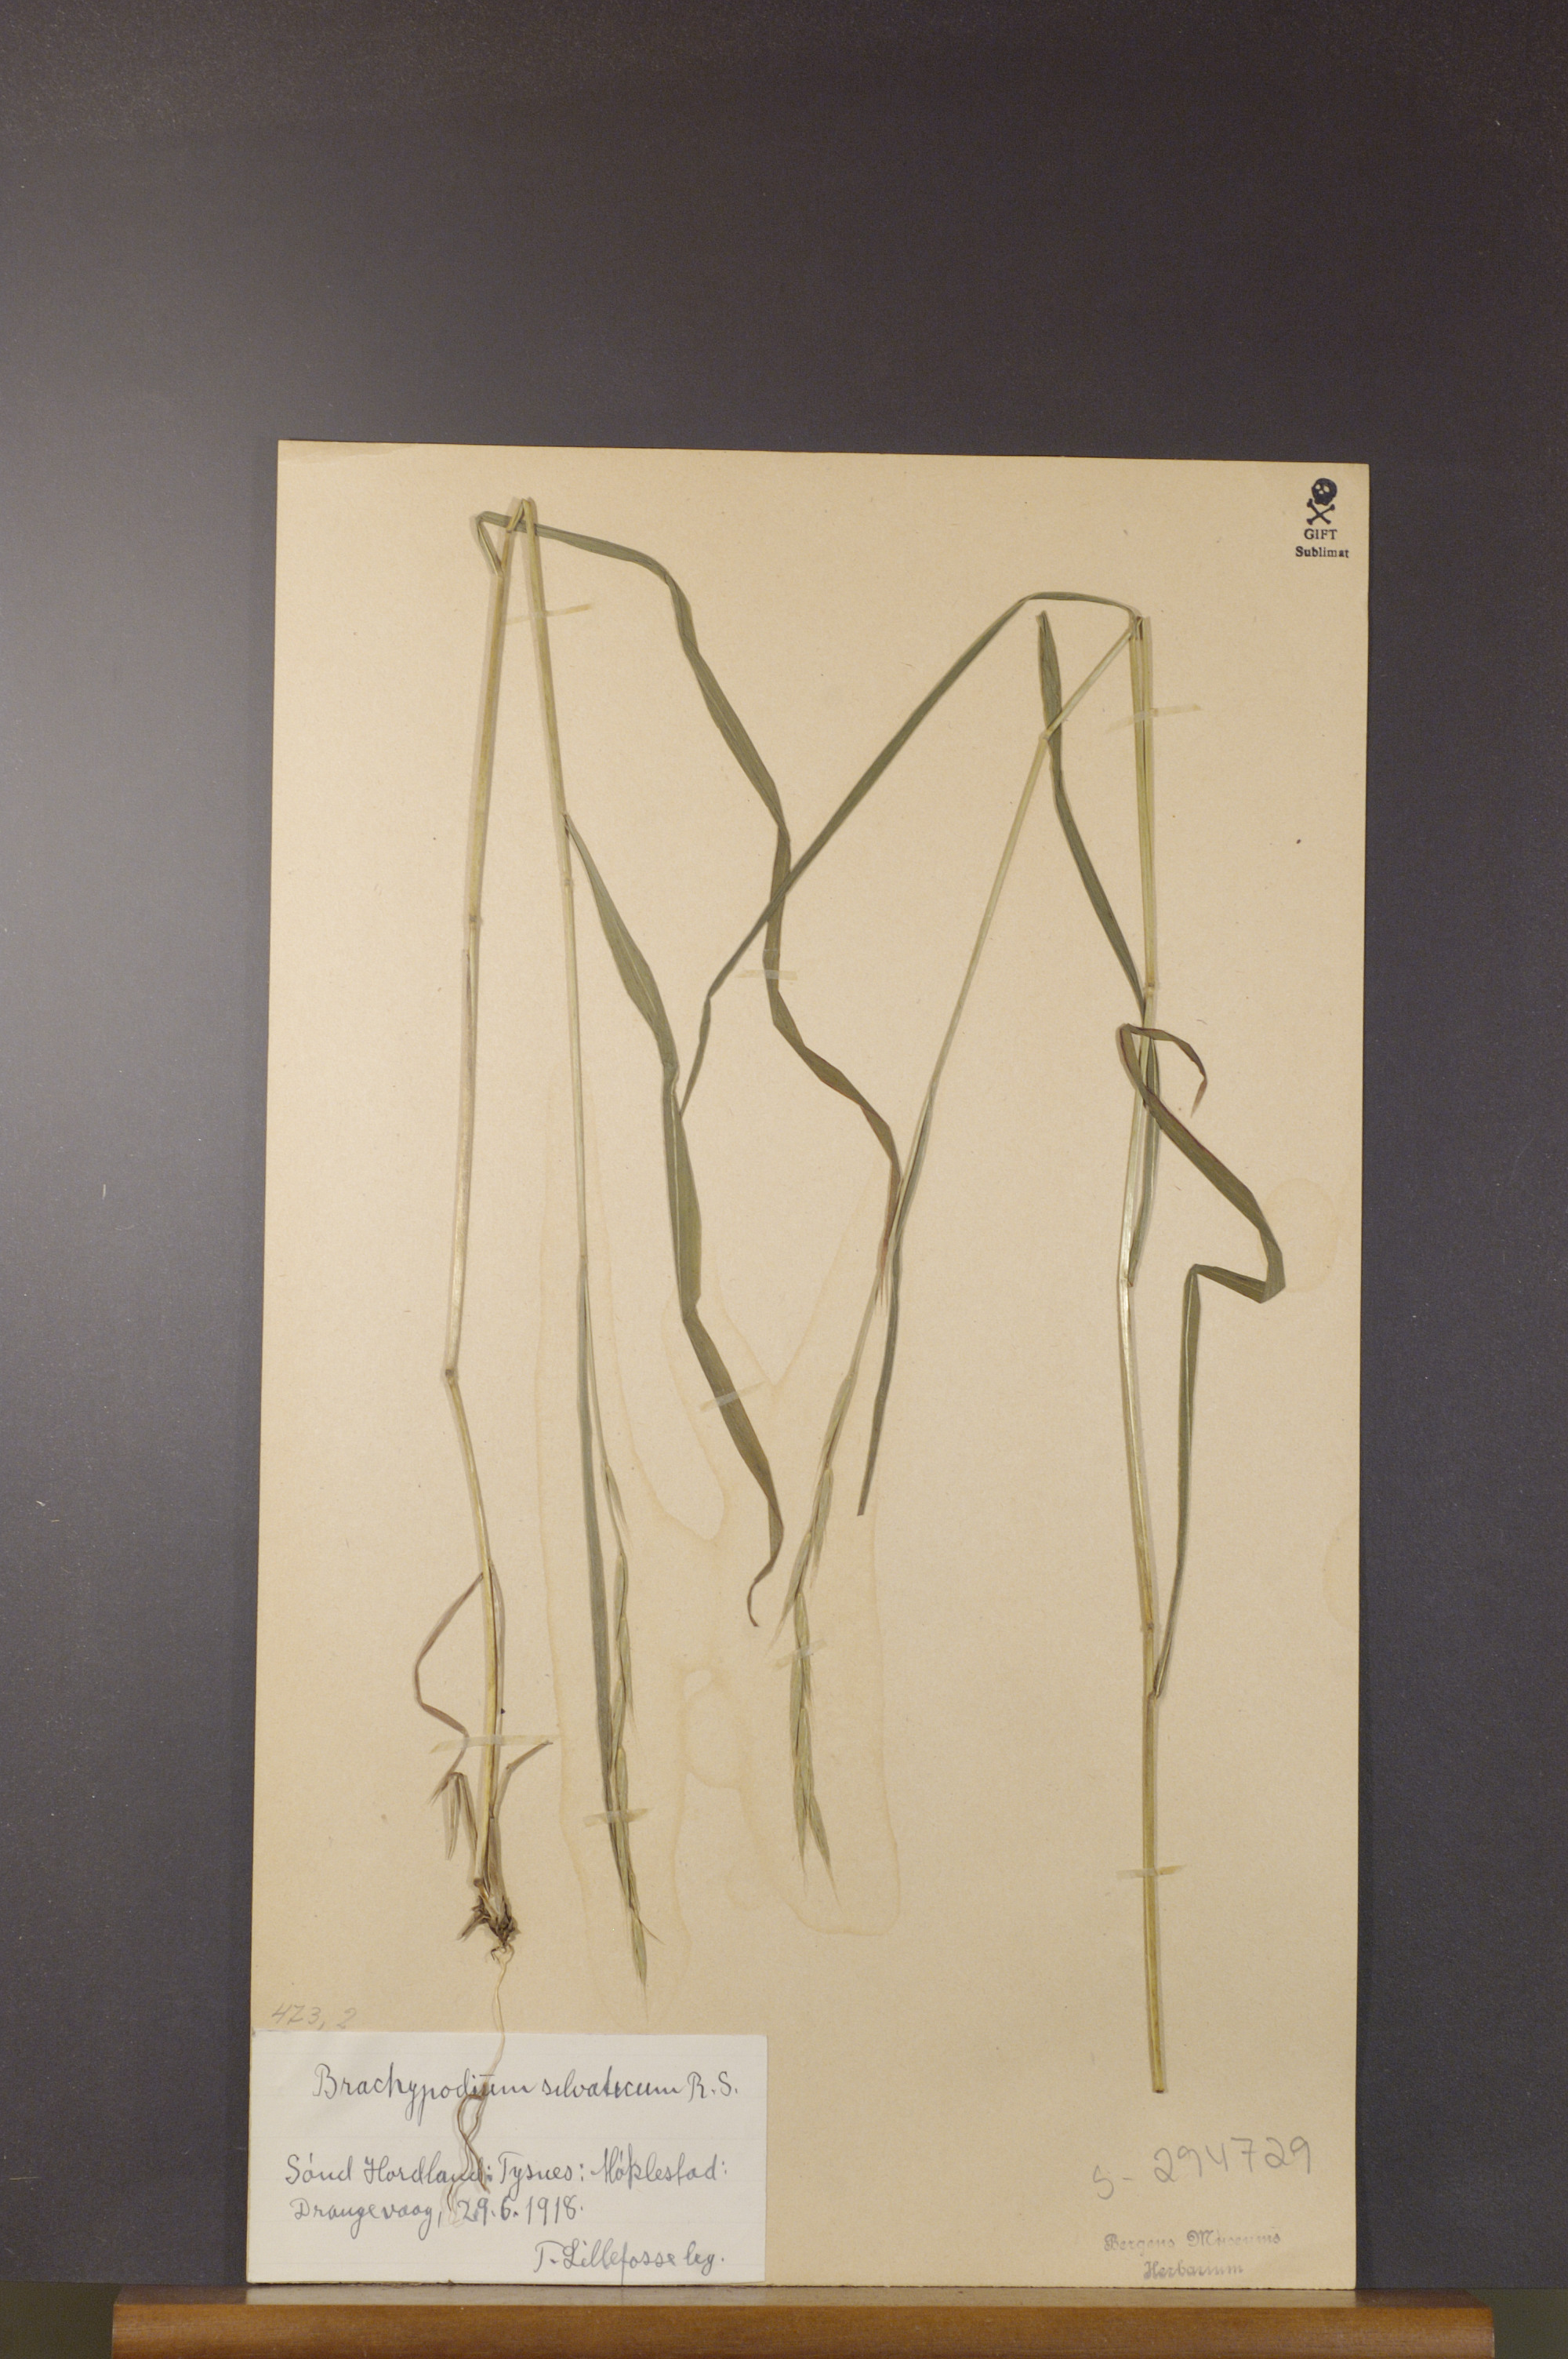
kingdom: Plantae
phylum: Tracheophyta
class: Liliopsida
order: Poales
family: Poaceae
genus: Brachypodium
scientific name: Brachypodium sylvaticum
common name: False-brome
